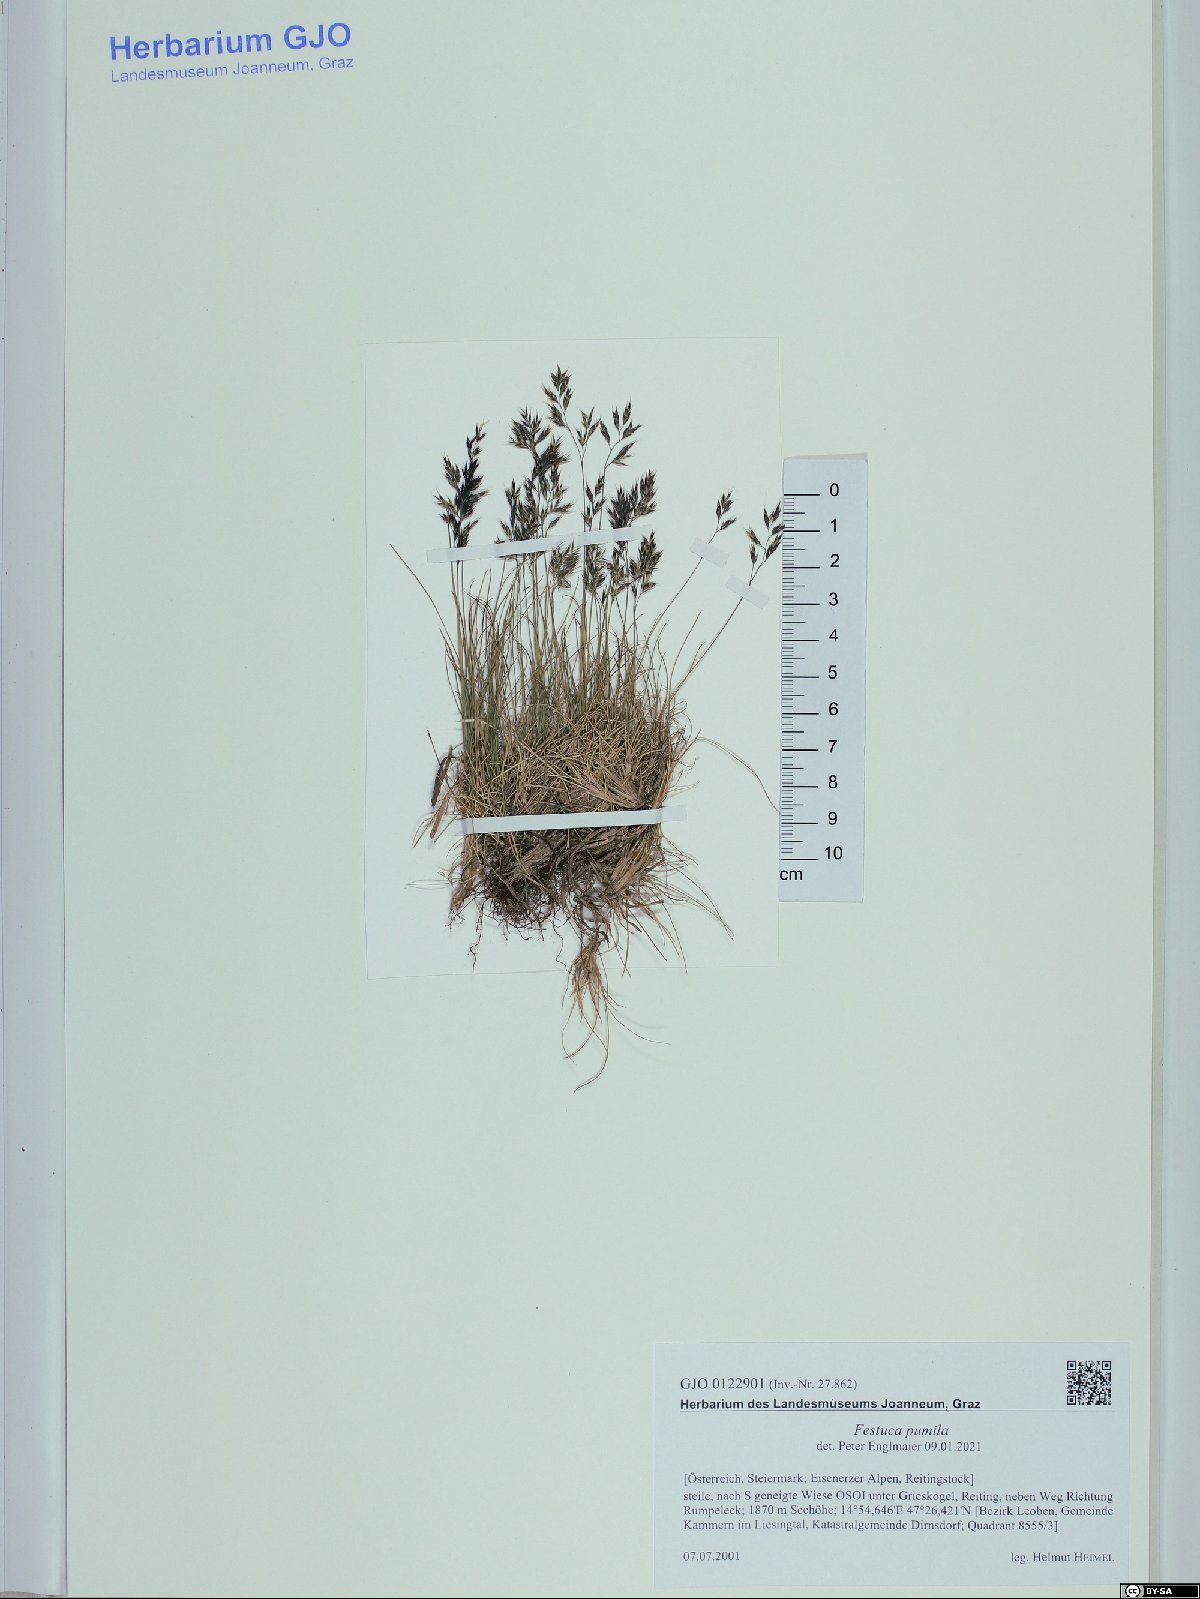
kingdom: Plantae
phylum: Tracheophyta
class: Liliopsida
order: Poales
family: Poaceae
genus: Festuca
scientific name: Festuca quadriflora
